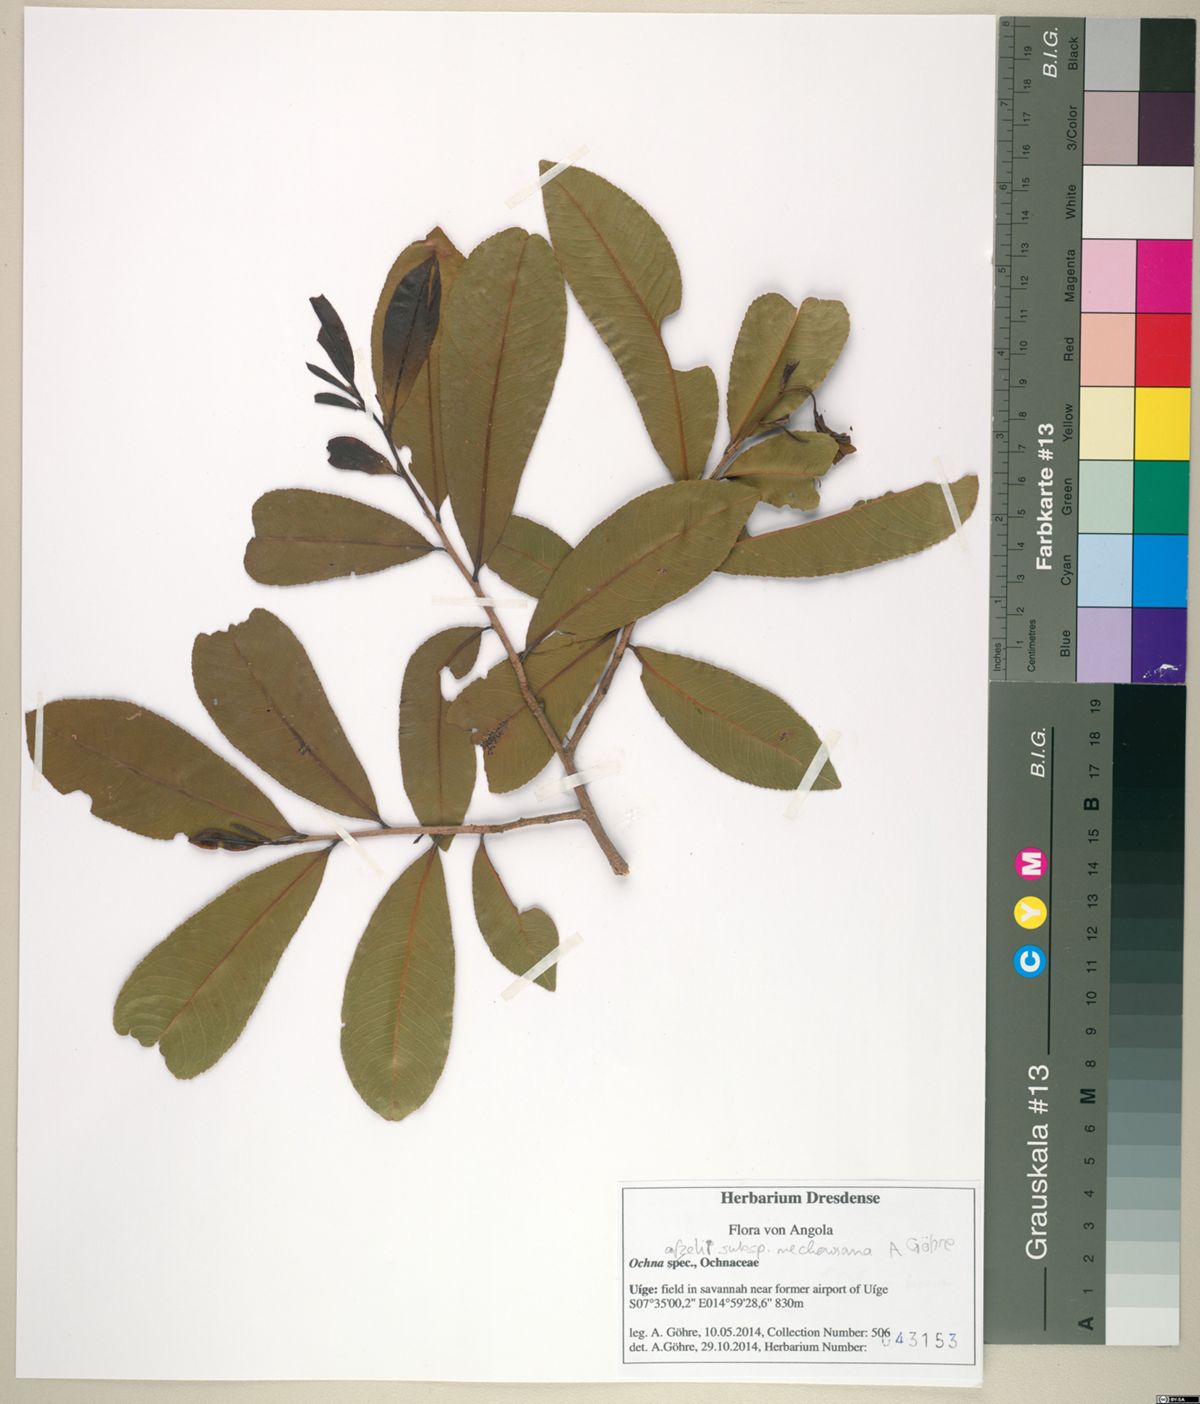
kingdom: Plantae
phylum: Tracheophyta
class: Magnoliopsida
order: Malpighiales
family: Ochnaceae
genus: Ochna
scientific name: Ochna afzelii
